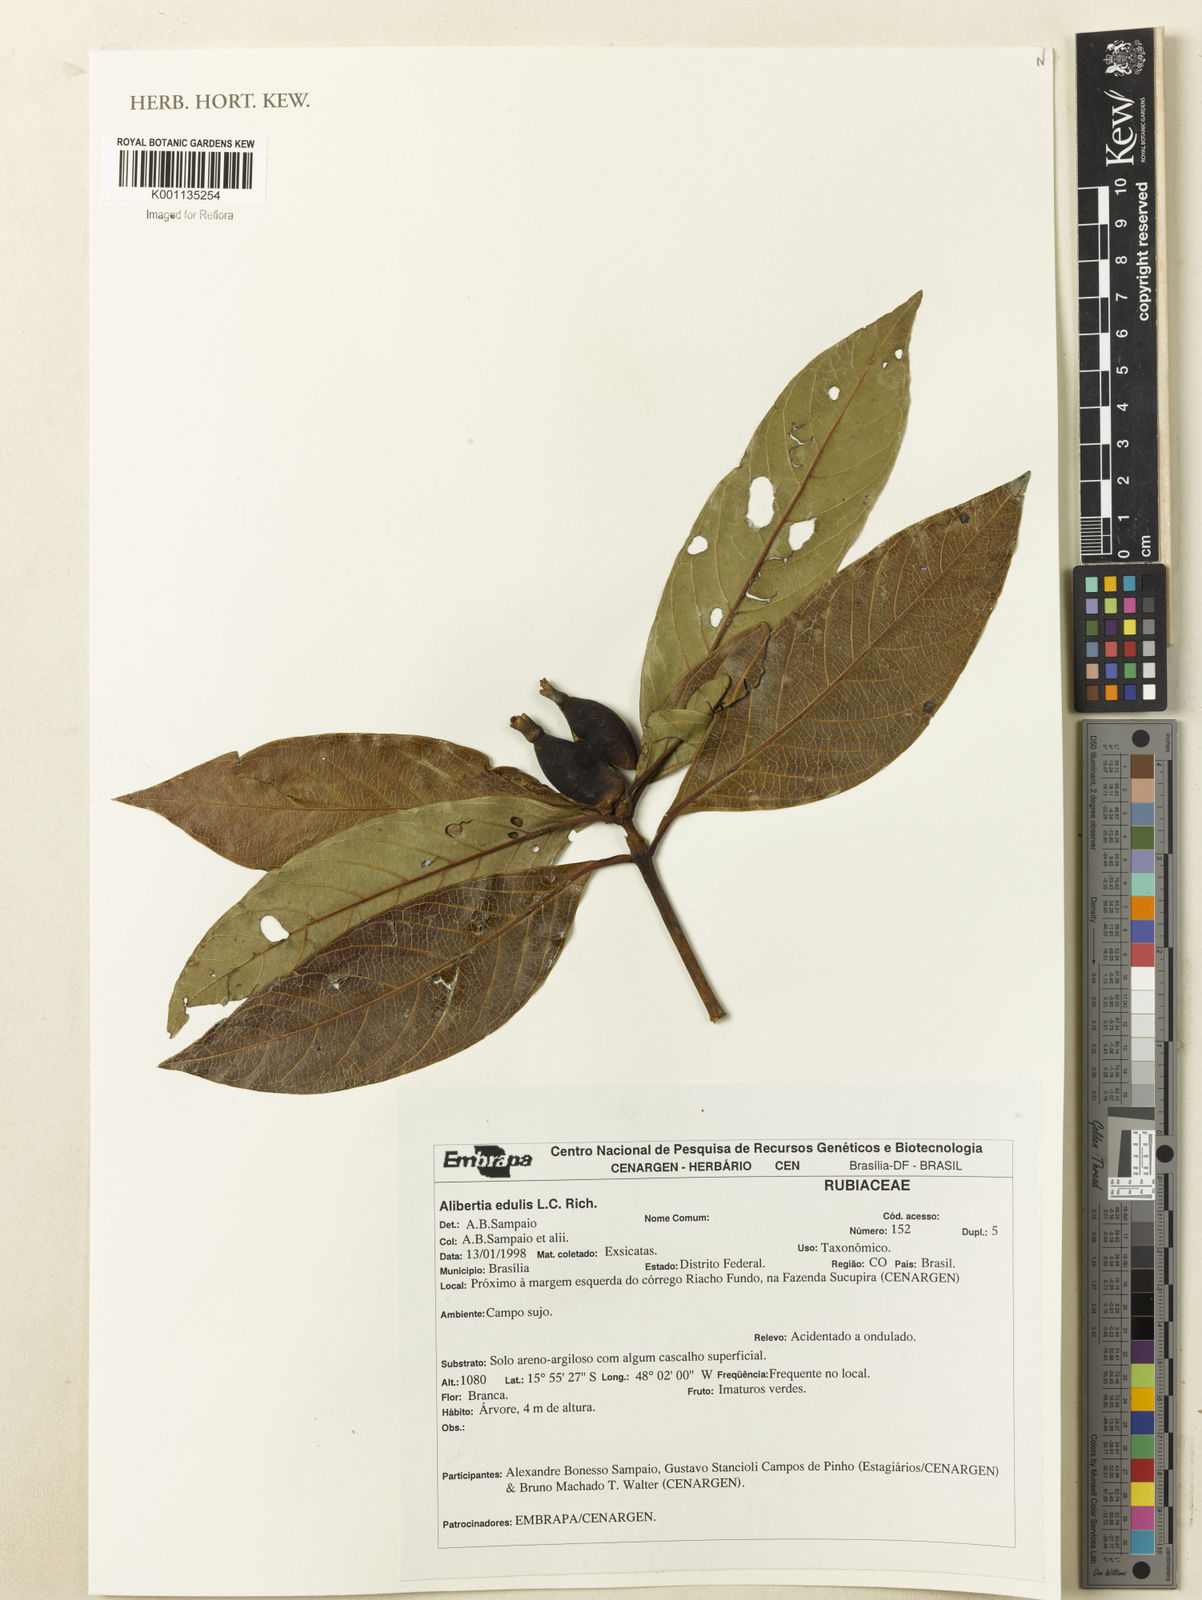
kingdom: Plantae
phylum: Tracheophyta
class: Magnoliopsida
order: Gentianales
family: Rubiaceae
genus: Alibertia
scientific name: Alibertia edulis
